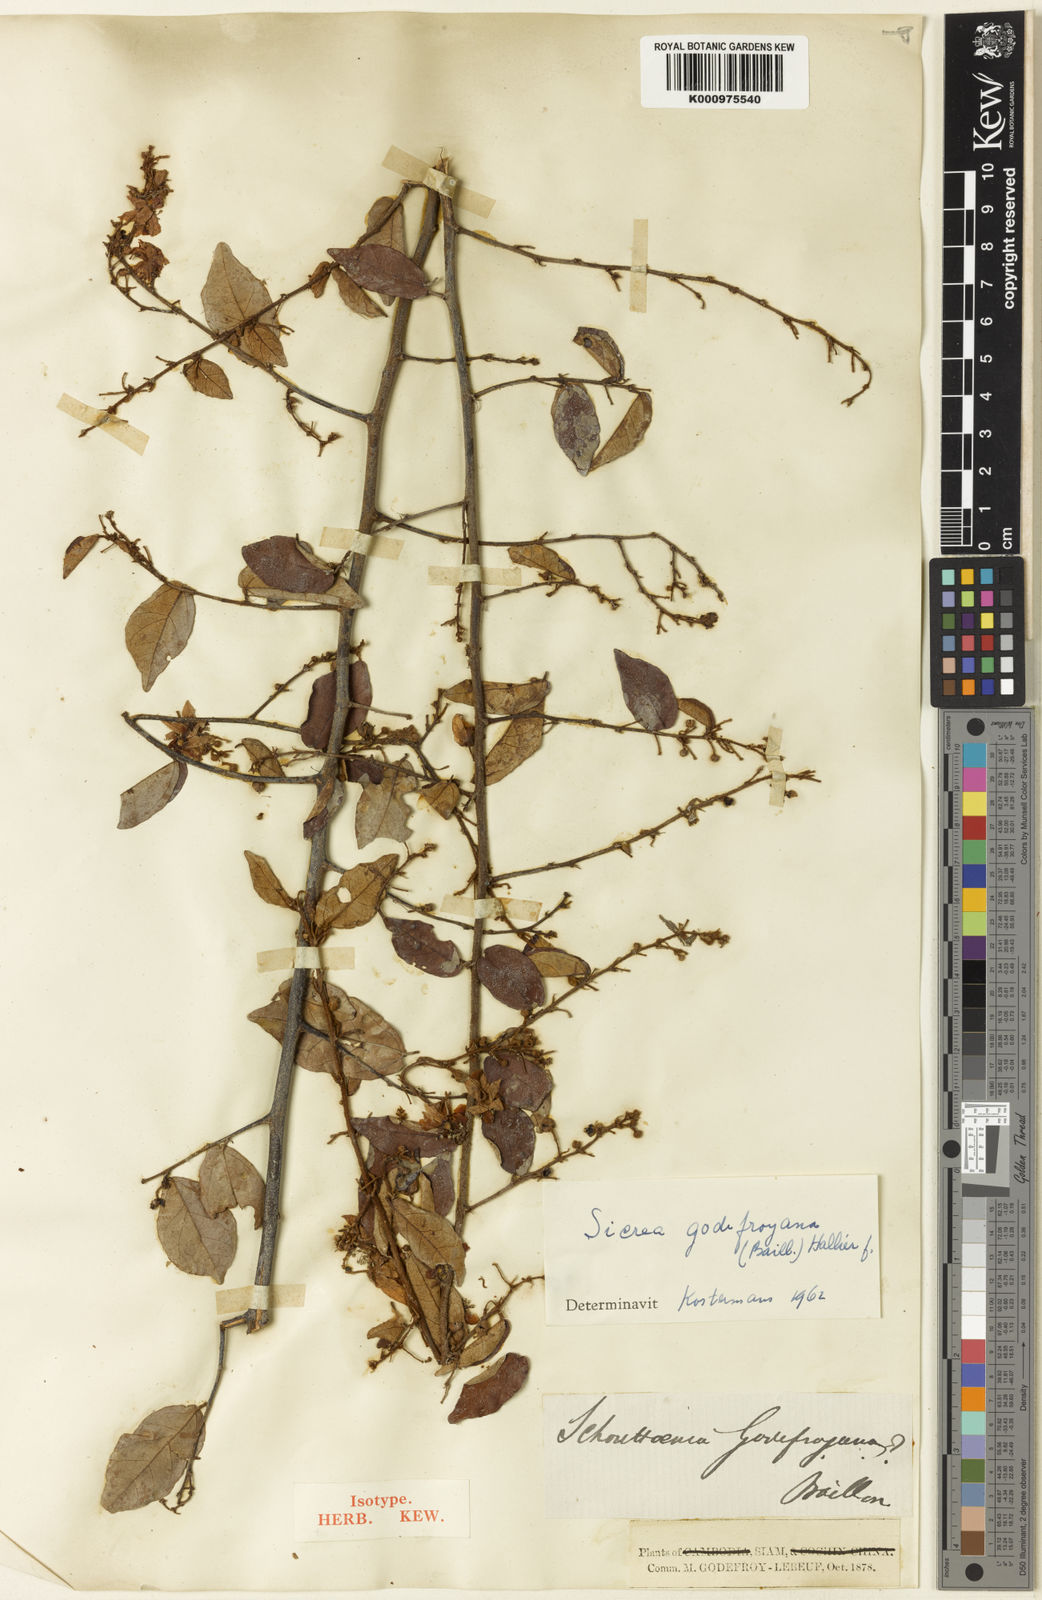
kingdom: Plantae
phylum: Tracheophyta
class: Magnoliopsida
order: Malvales
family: Malvaceae
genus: Schoutenia
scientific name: Schoutenia godefroyana
